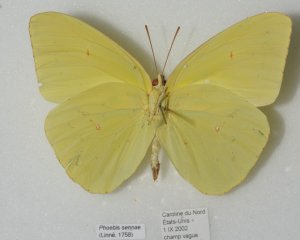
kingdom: Animalia
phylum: Arthropoda
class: Insecta
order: Lepidoptera
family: Pieridae
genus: Phoebis
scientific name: Phoebis sennae
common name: Cloudless Sulphur
